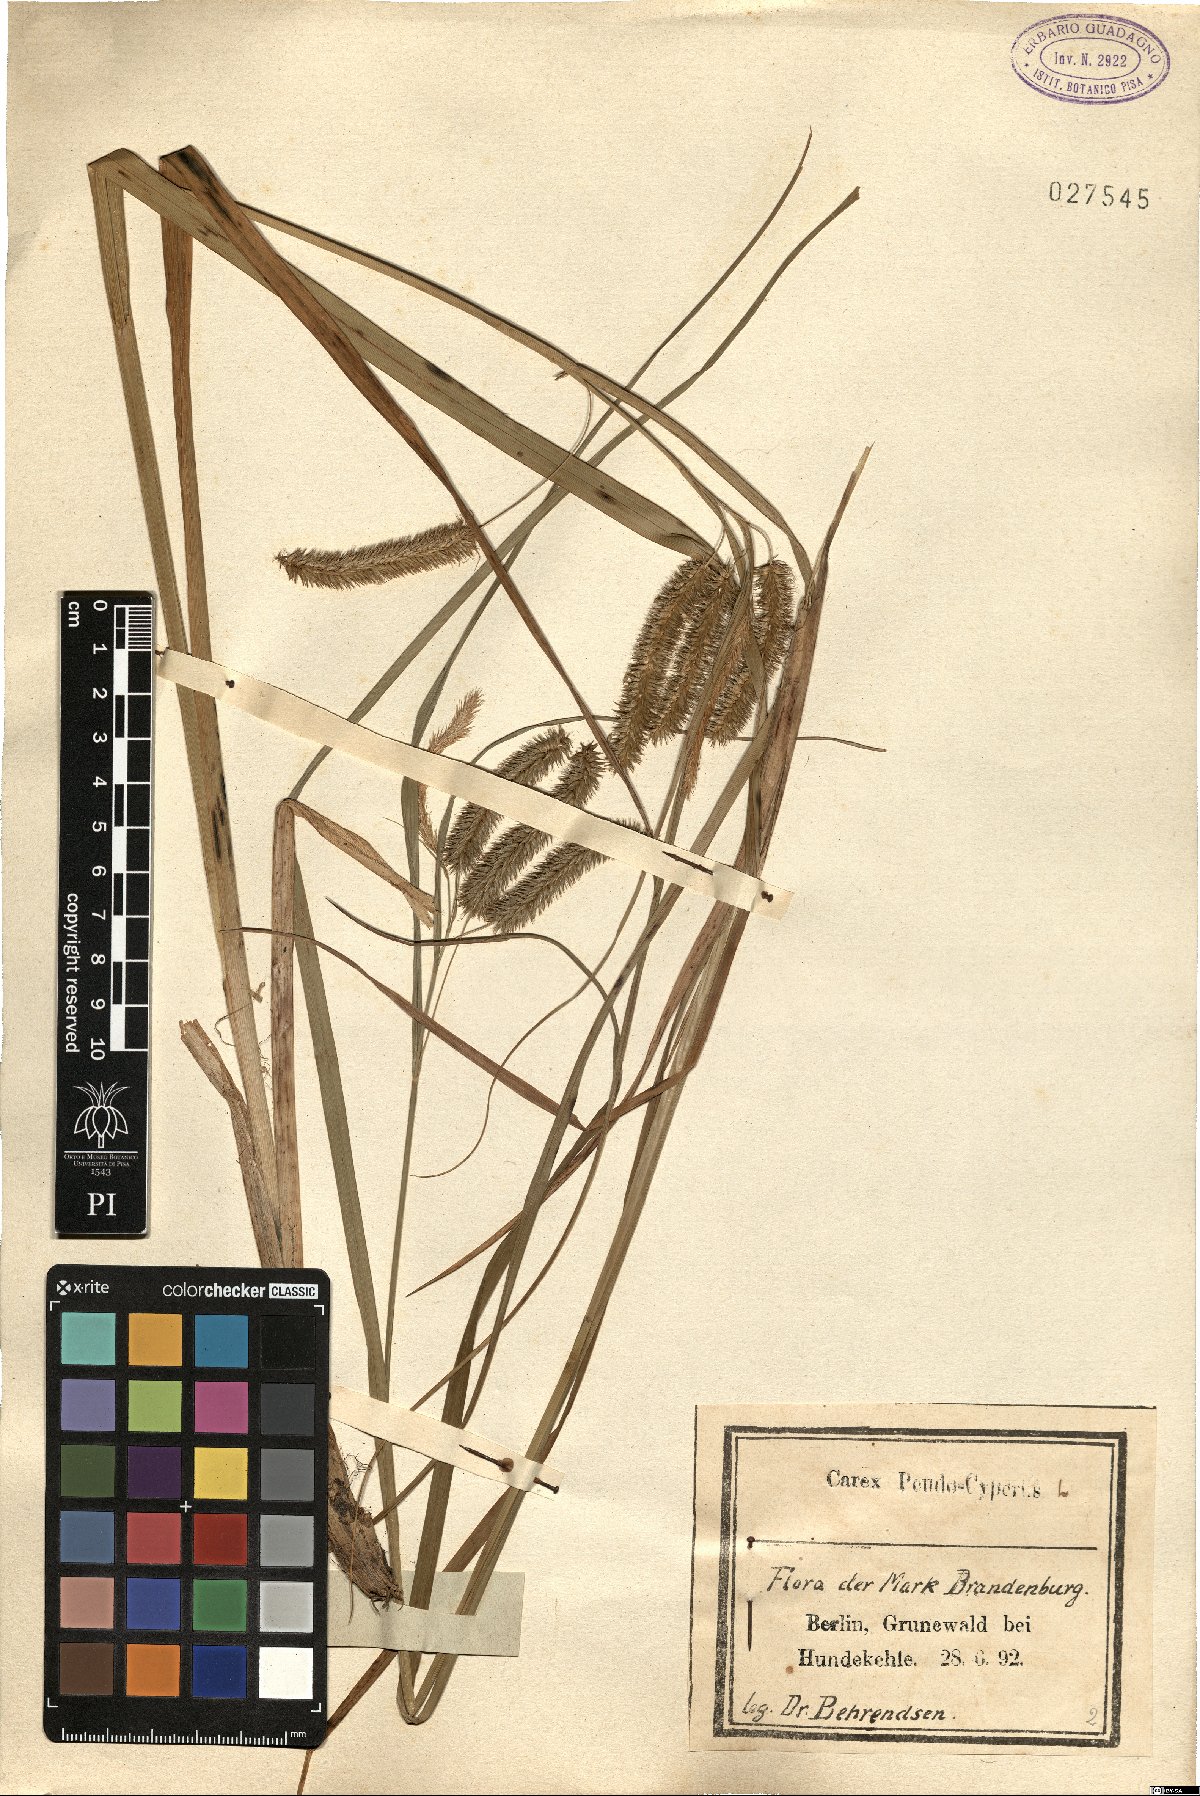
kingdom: Plantae
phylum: Tracheophyta
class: Liliopsida
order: Poales
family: Cyperaceae
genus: Carex
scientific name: Carex pseudocyperus
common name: Cyperus sedge
